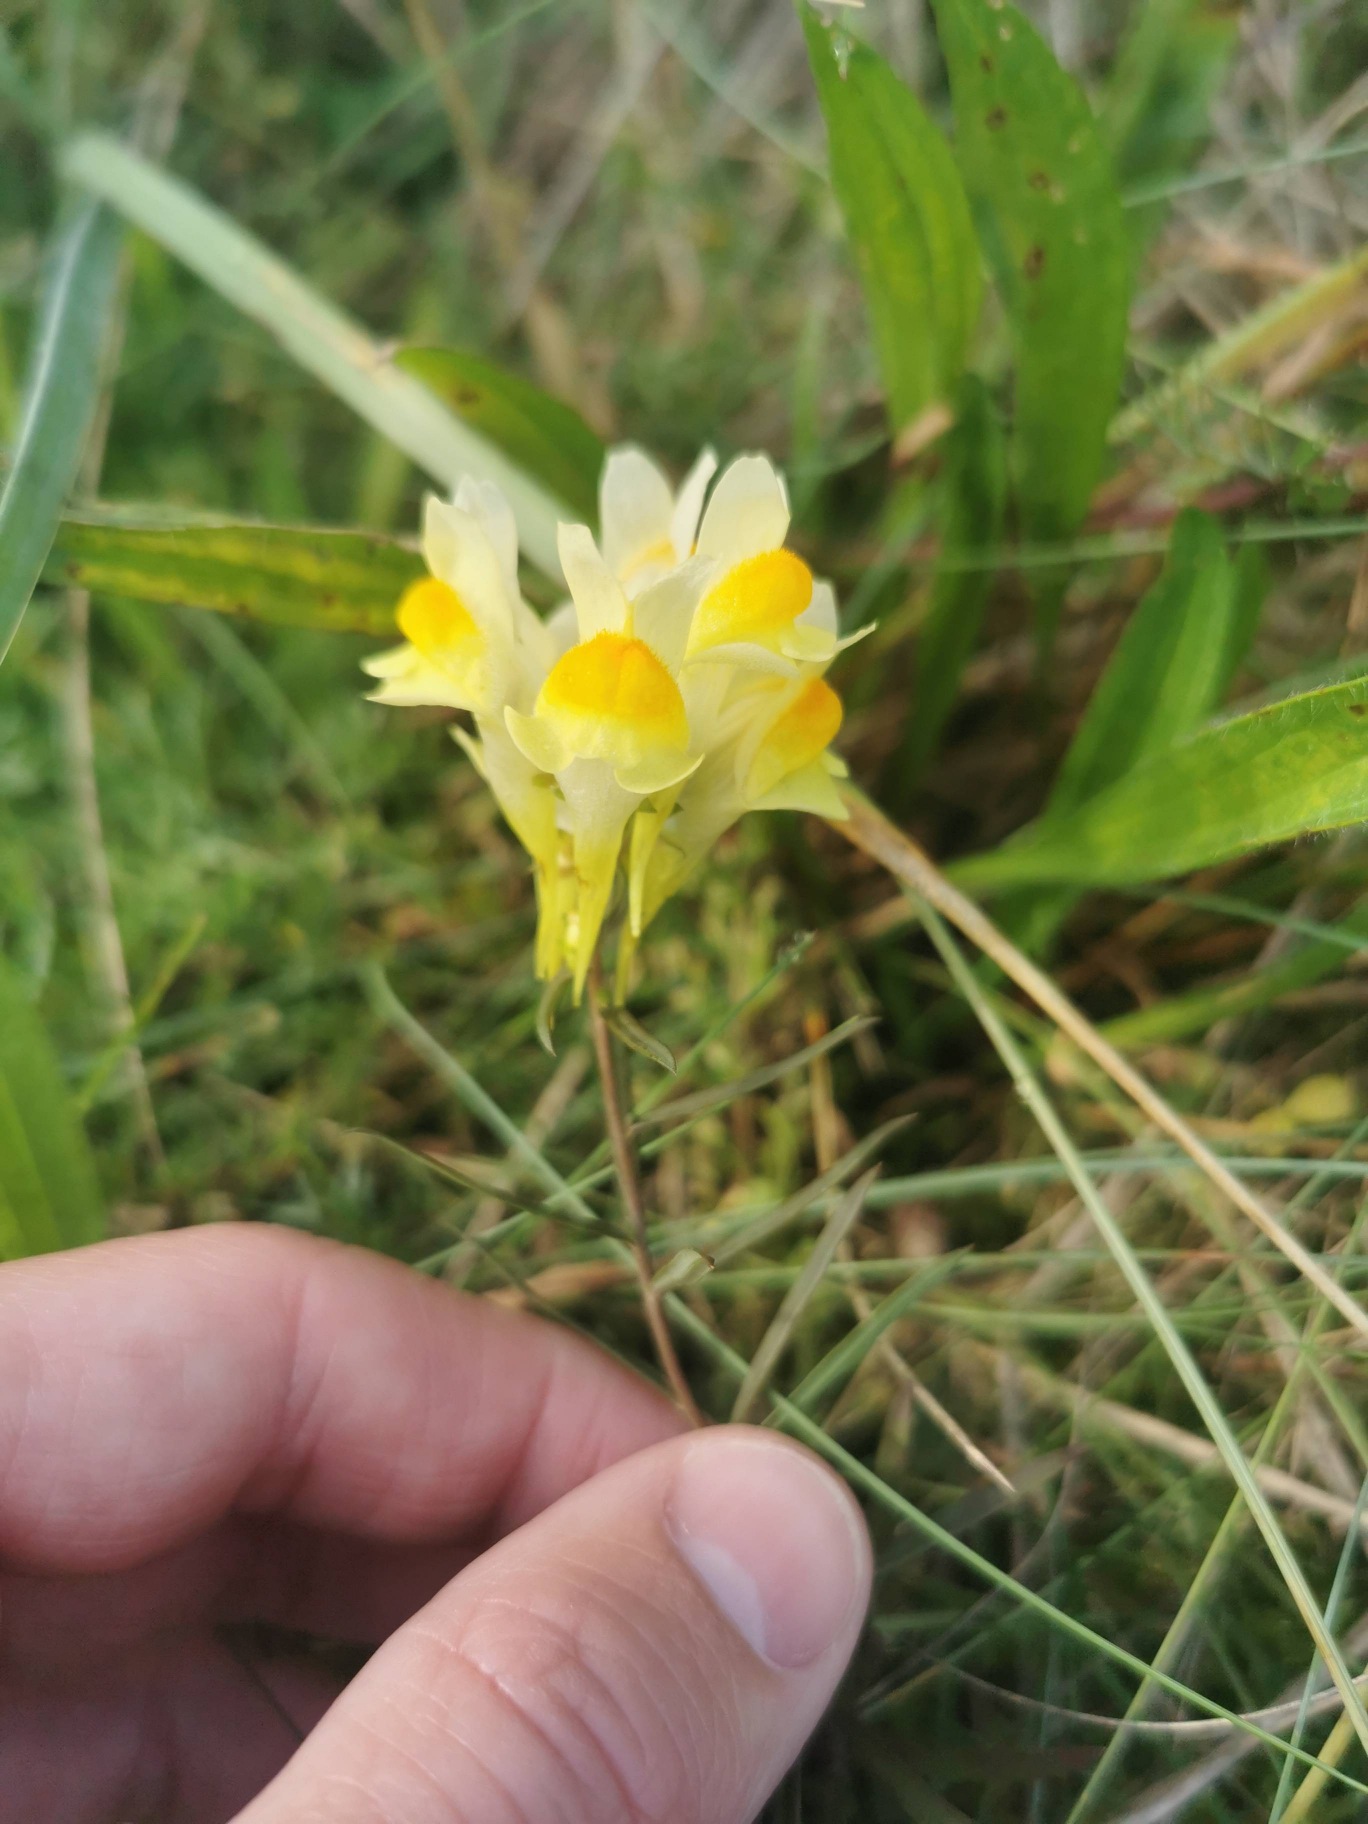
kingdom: Plantae
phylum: Tracheophyta
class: Magnoliopsida
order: Lamiales
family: Plantaginaceae
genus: Linaria
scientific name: Linaria vulgaris
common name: Almindelig torskemund
